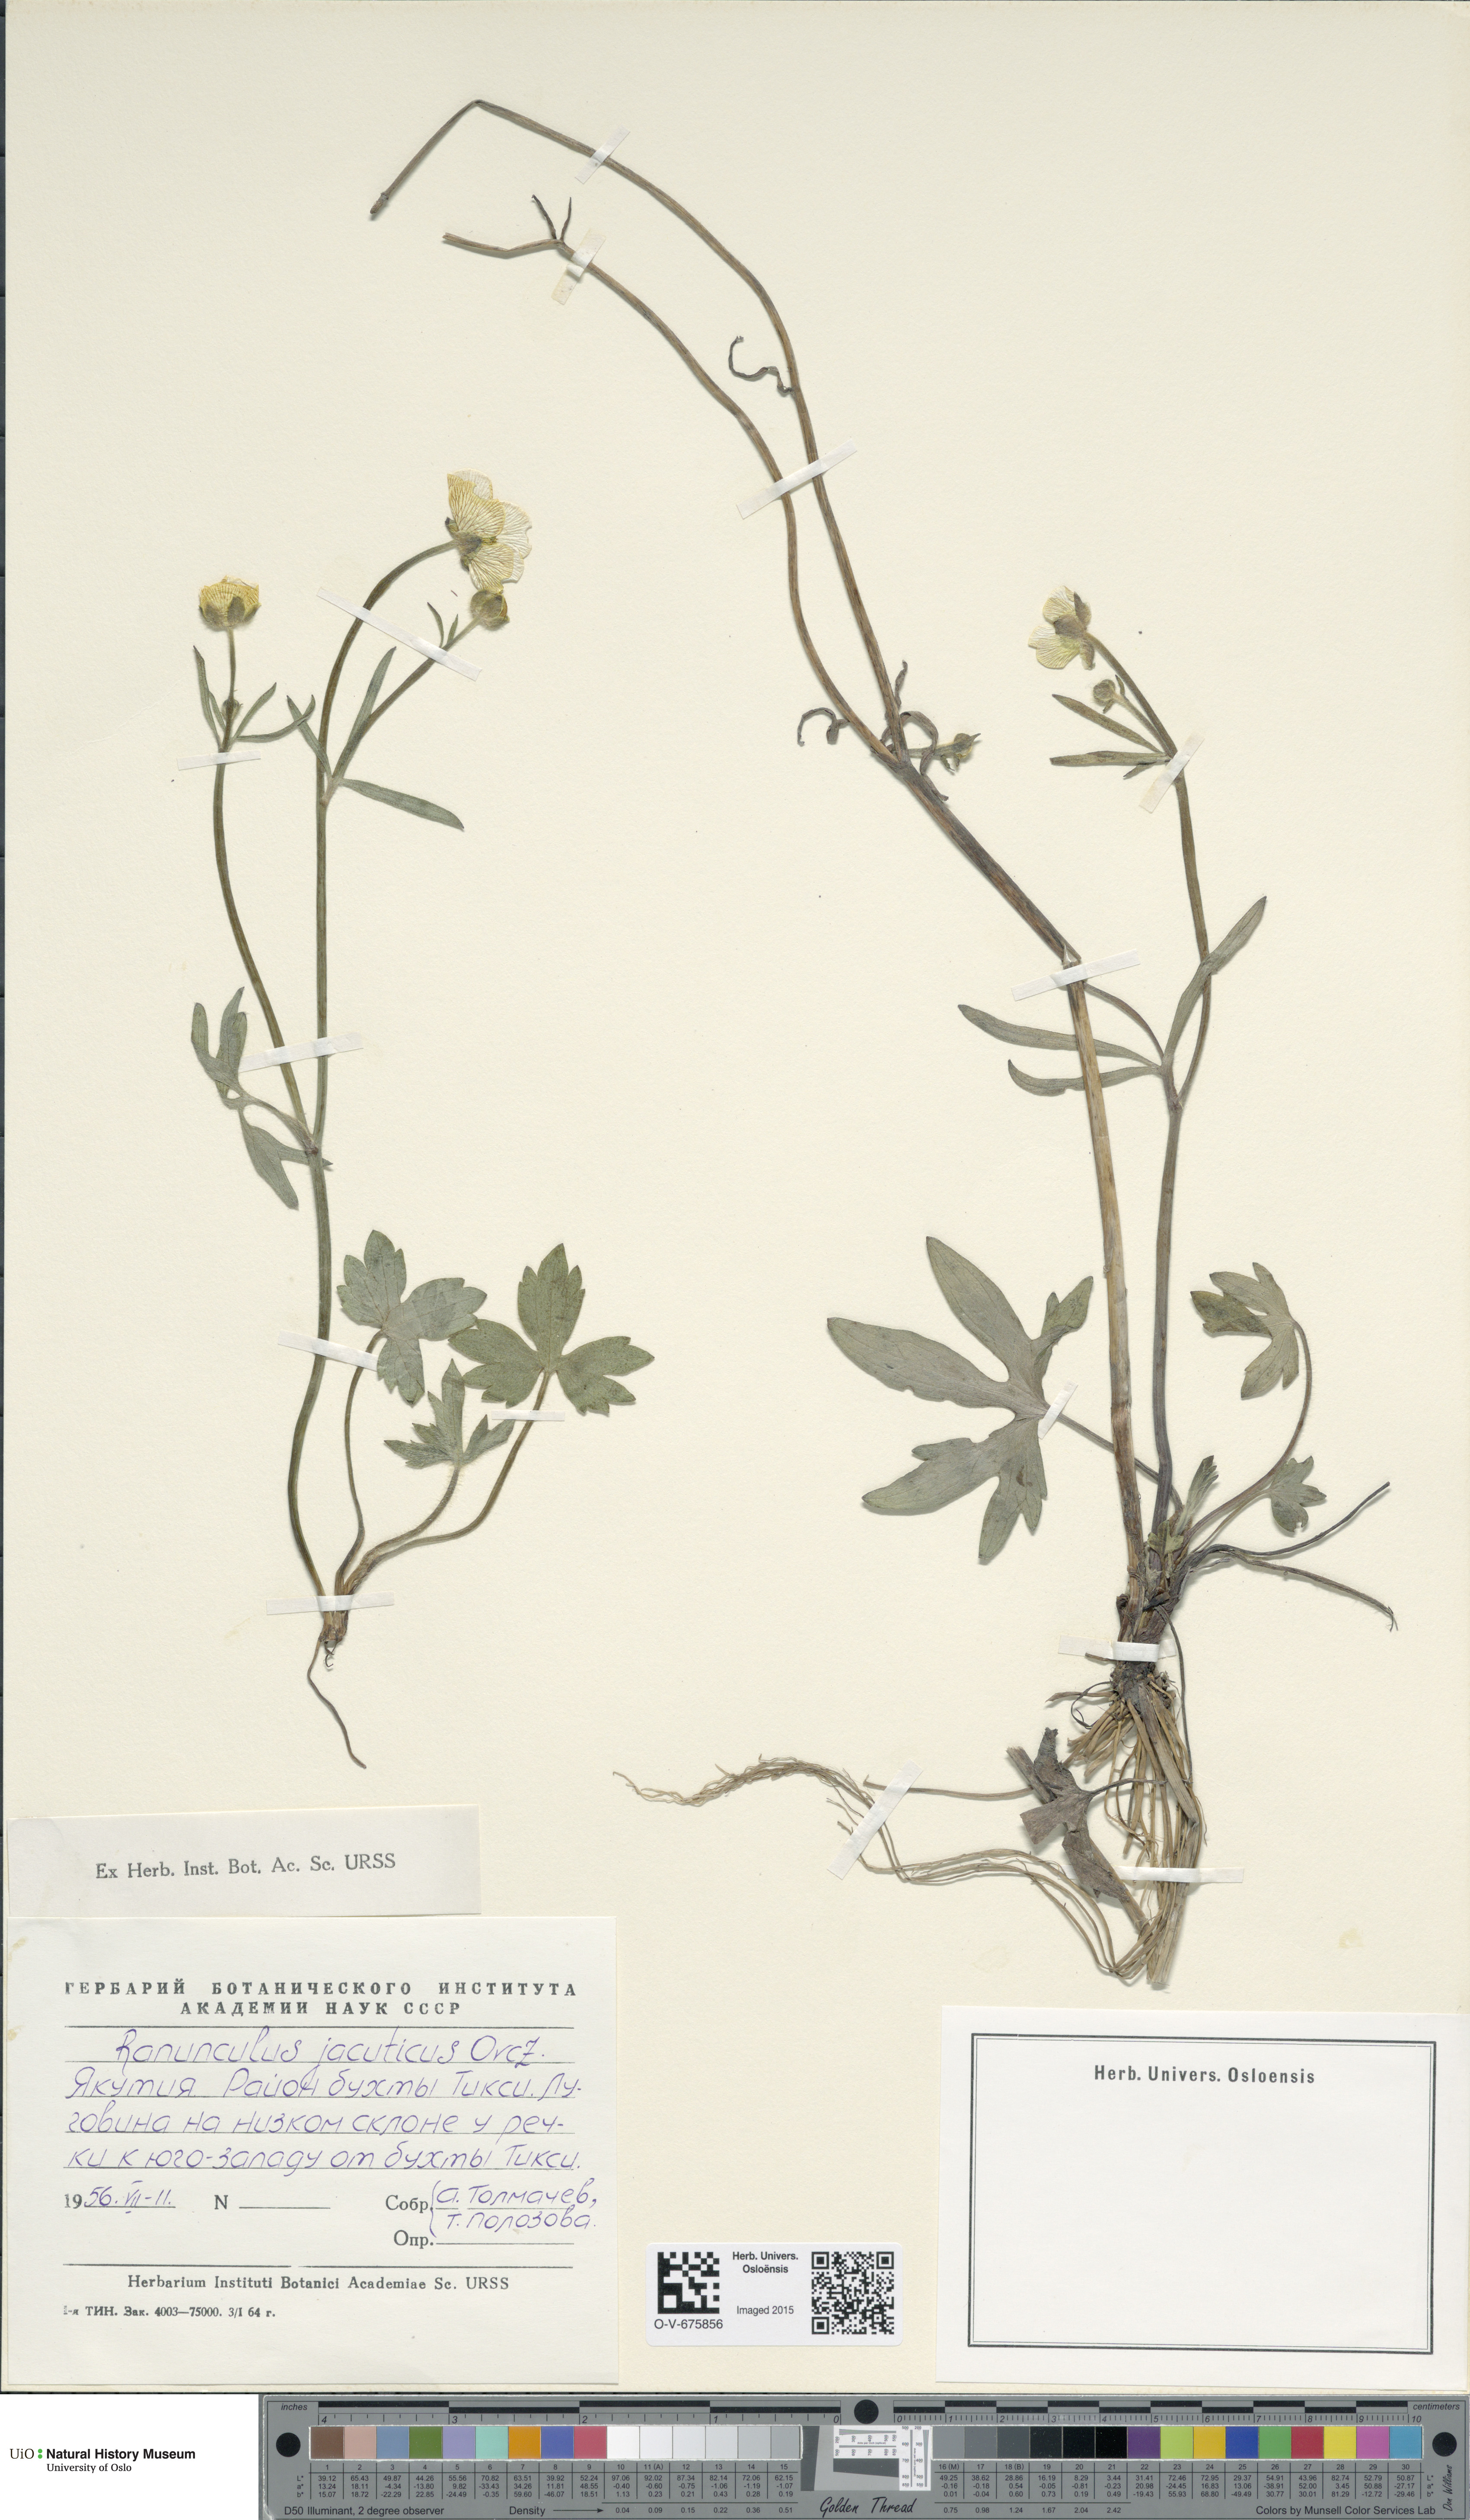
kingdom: Plantae
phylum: Tracheophyta
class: Magnoliopsida
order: Ranunculales
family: Ranunculaceae
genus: Ranunculus
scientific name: Ranunculus turneri
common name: Turner's buttercup
